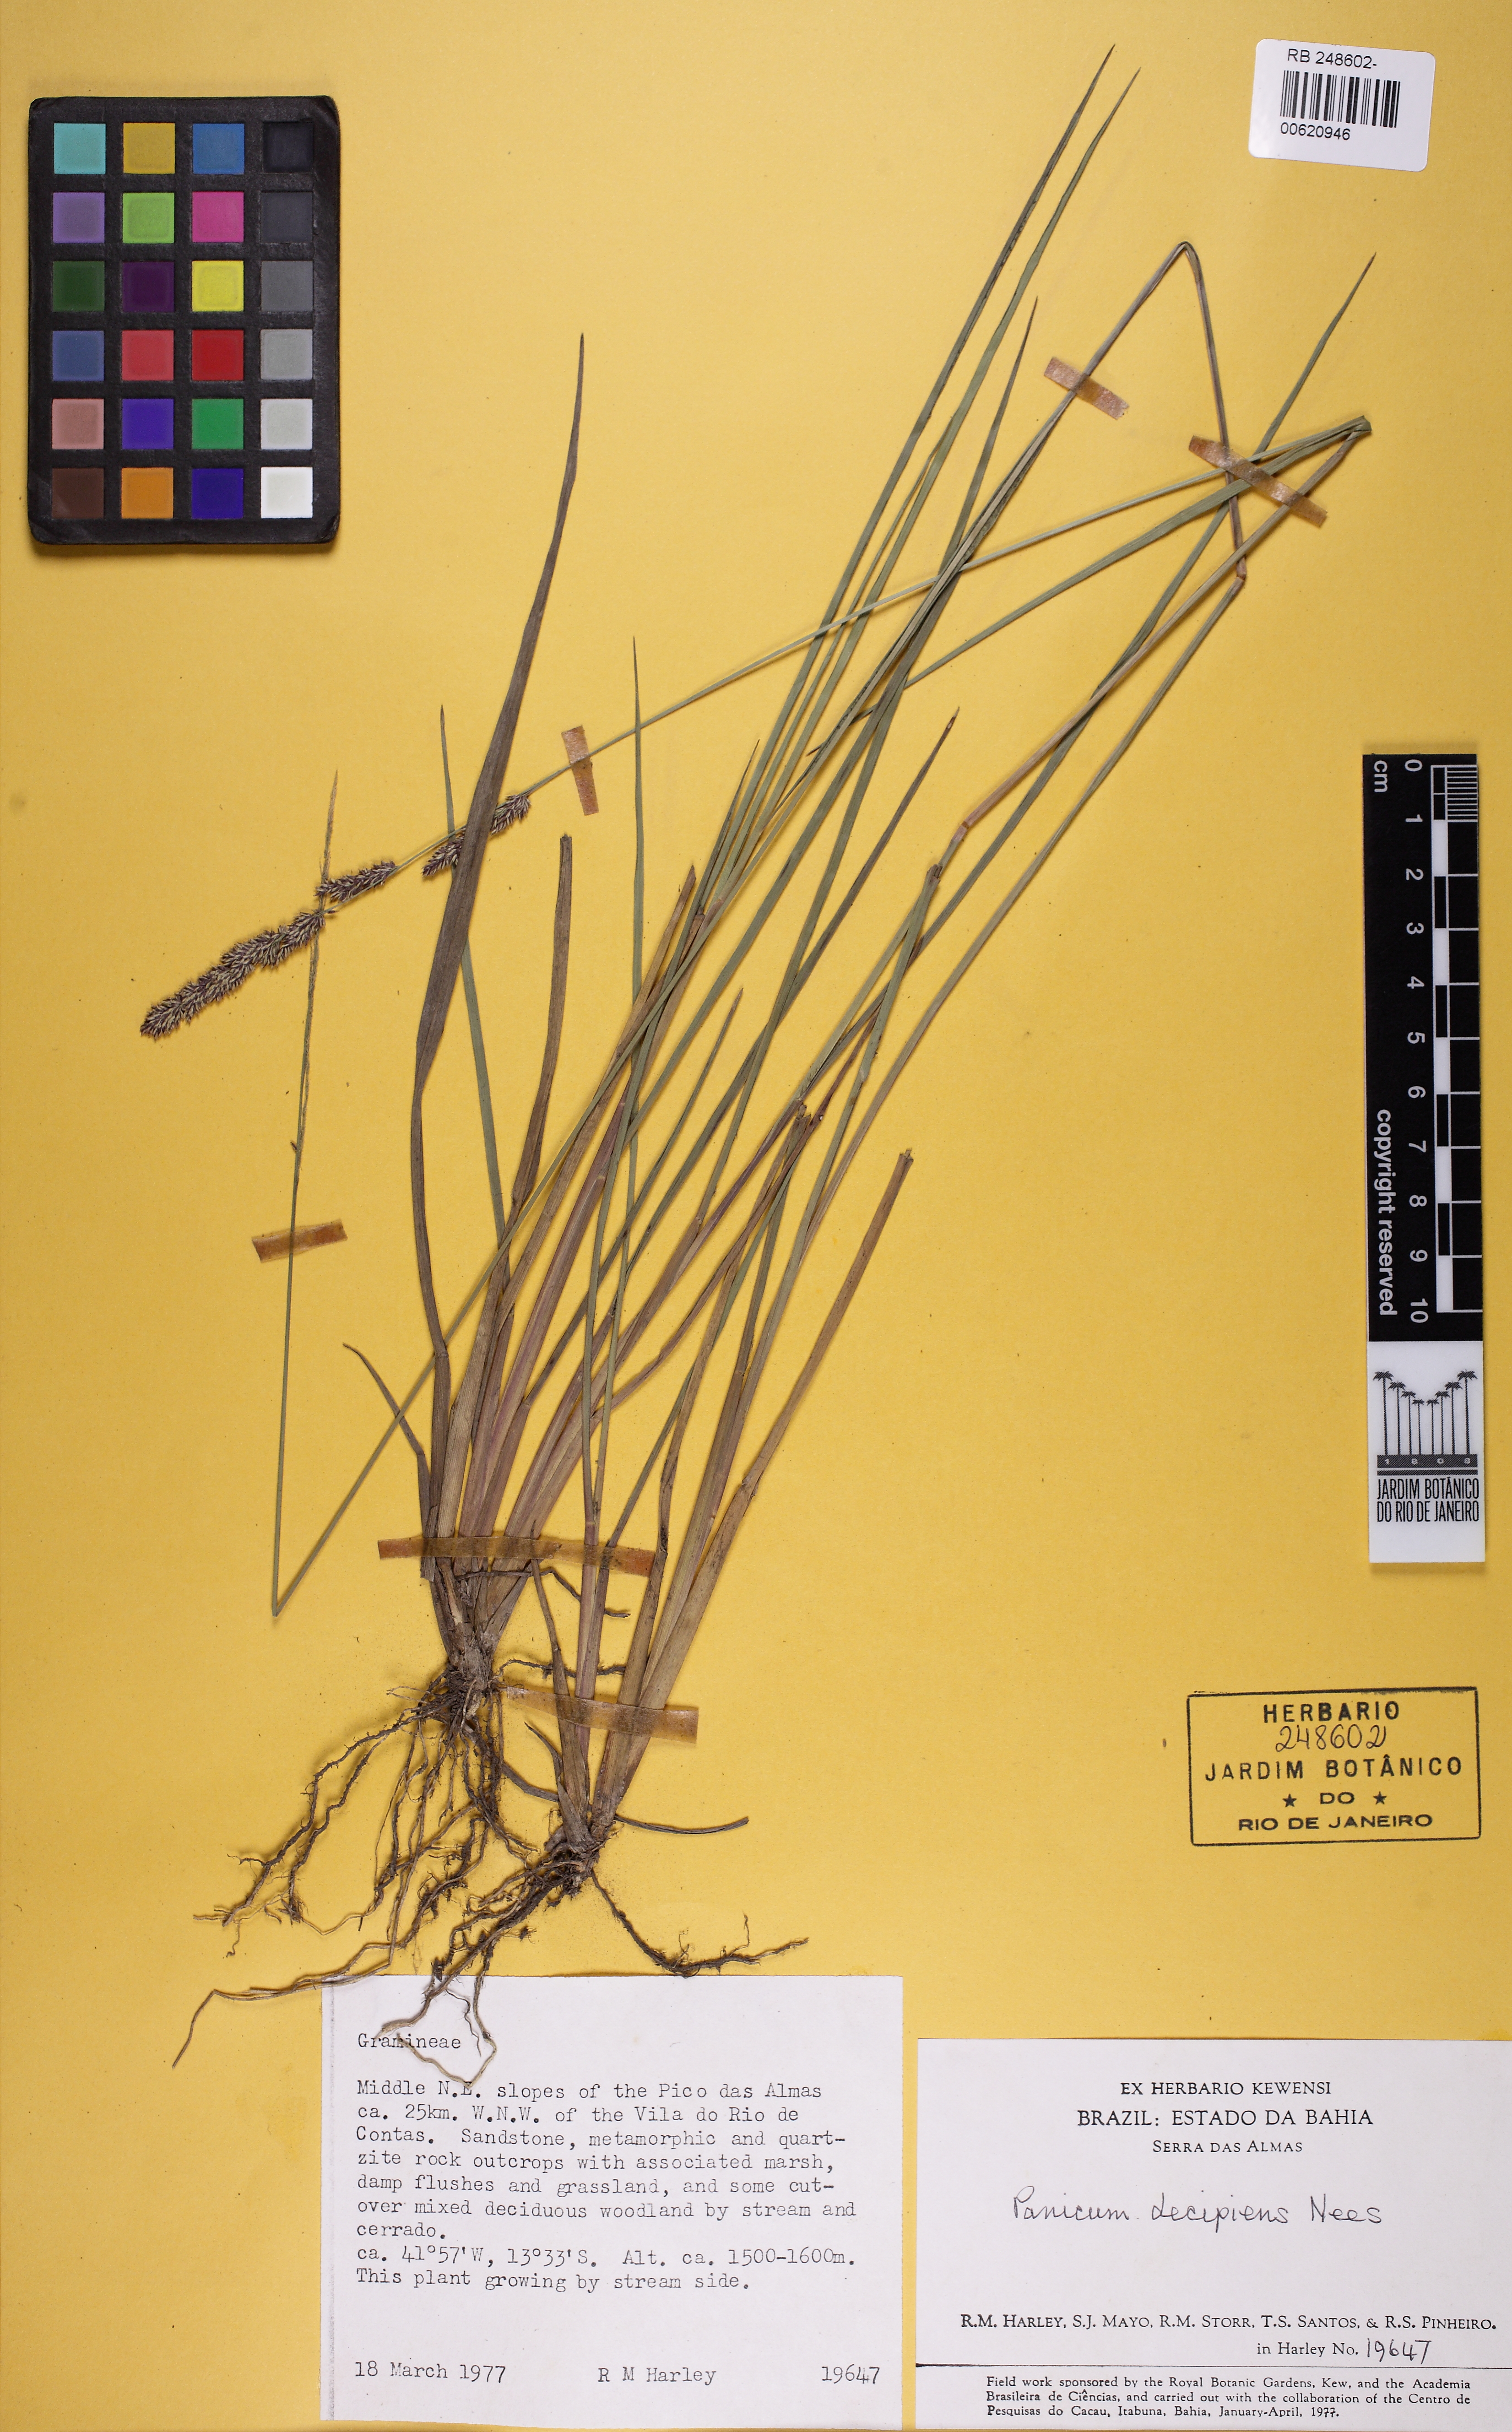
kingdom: Plantae
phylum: Tracheophyta
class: Liliopsida
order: Poales
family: Poaceae
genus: Steinchisma
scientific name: Steinchisma decipiens
